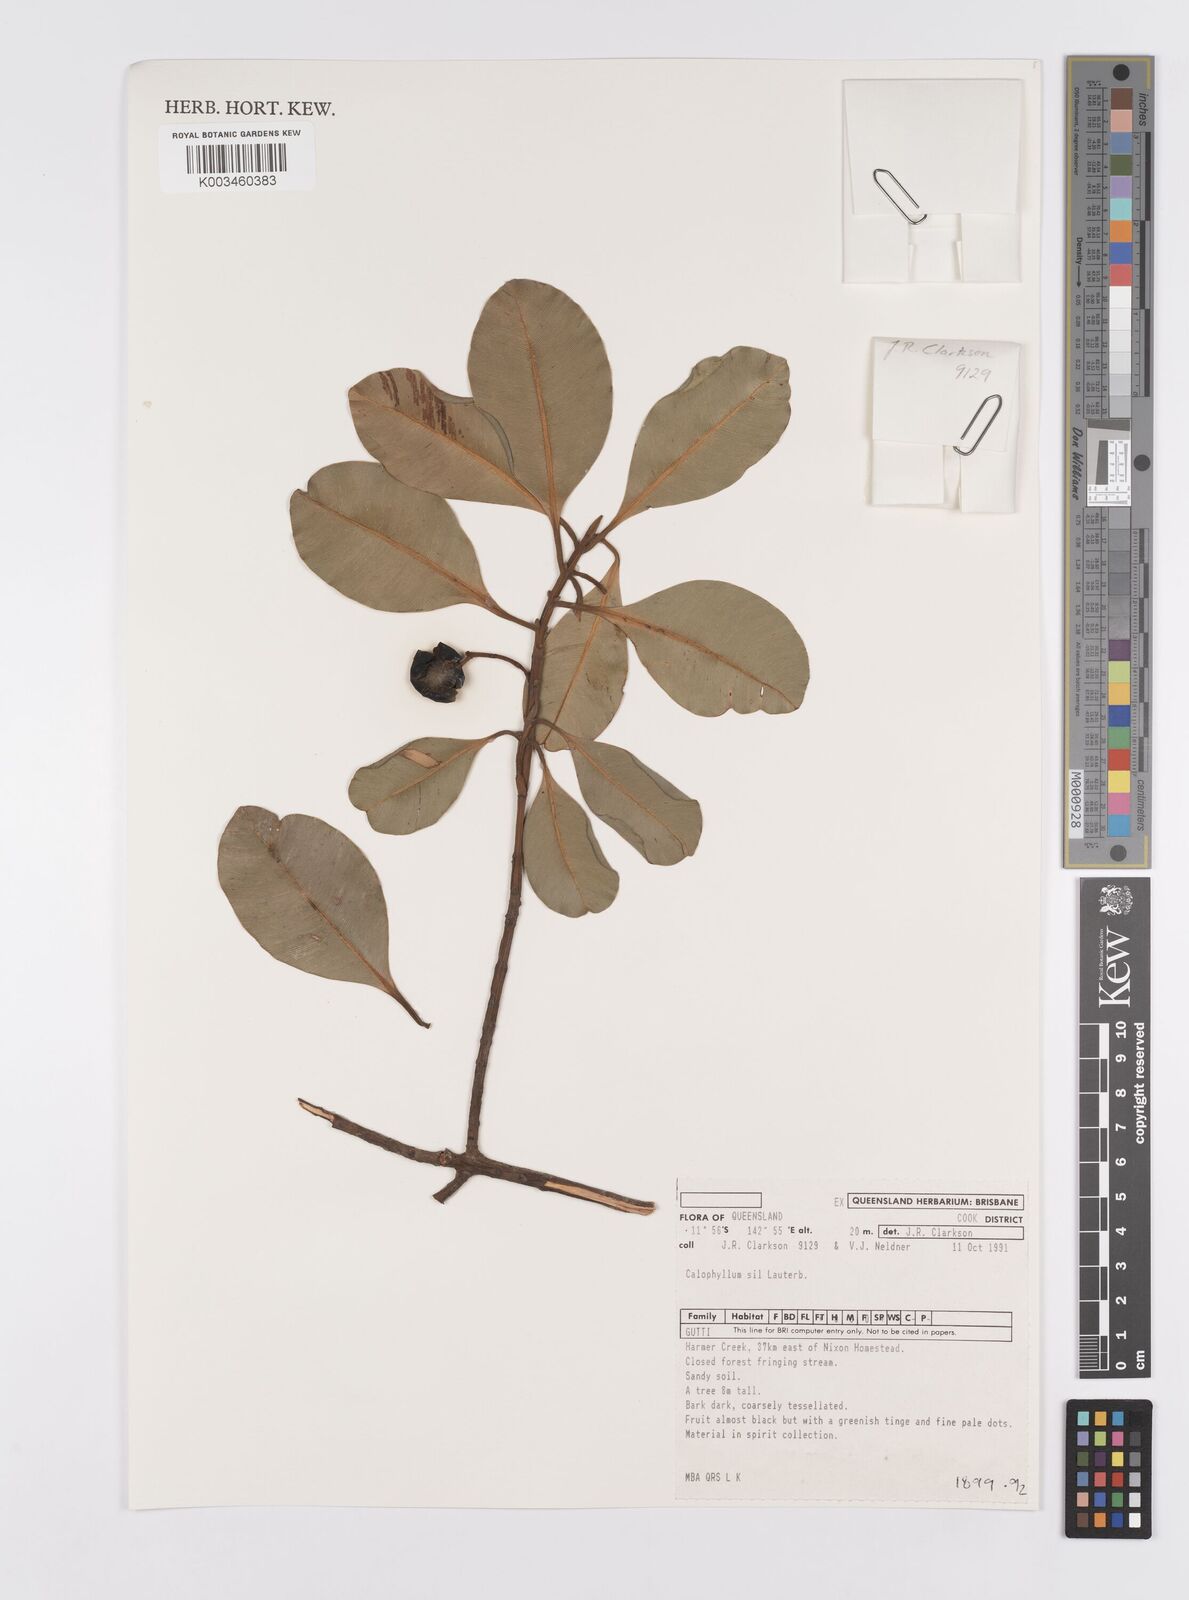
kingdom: Plantae
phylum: Tracheophyta
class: Magnoliopsida
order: Malpighiales
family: Calophyllaceae
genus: Calophyllum
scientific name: Calophyllum sil
